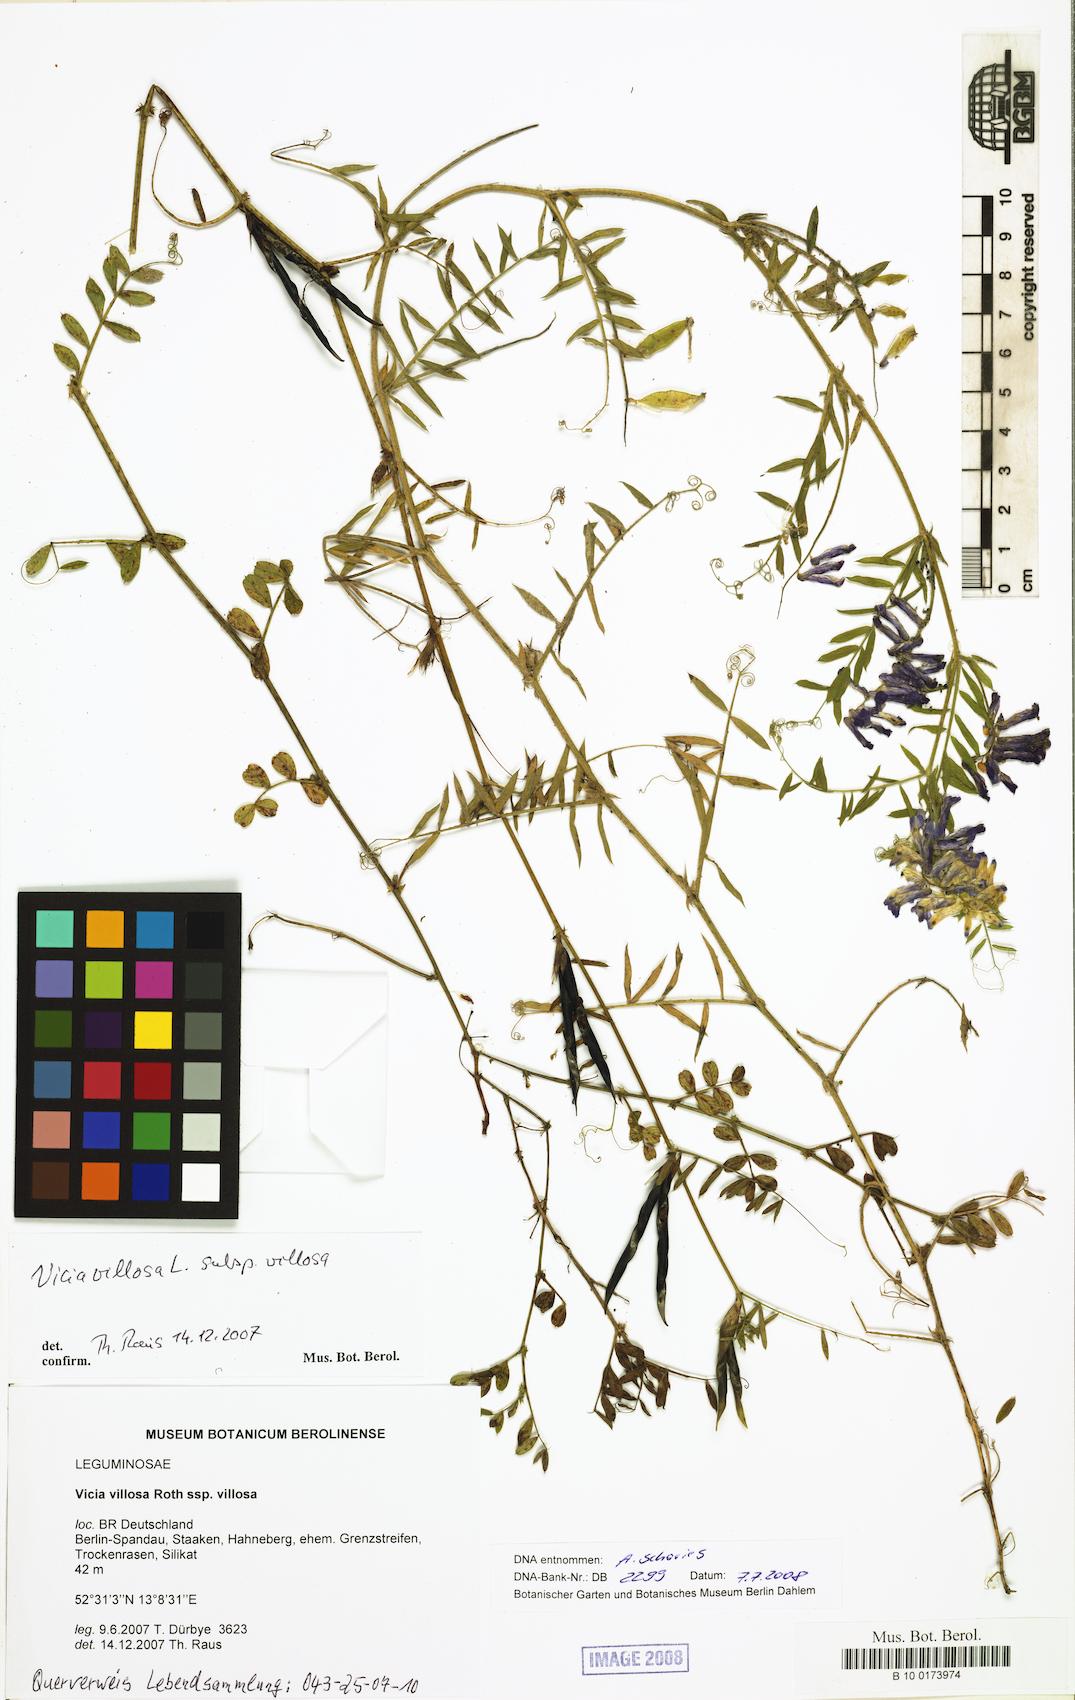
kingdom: Plantae
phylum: Tracheophyta
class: Magnoliopsida
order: Fabales
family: Fabaceae
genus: Vicia
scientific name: Vicia villosa
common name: Fodder vetch
